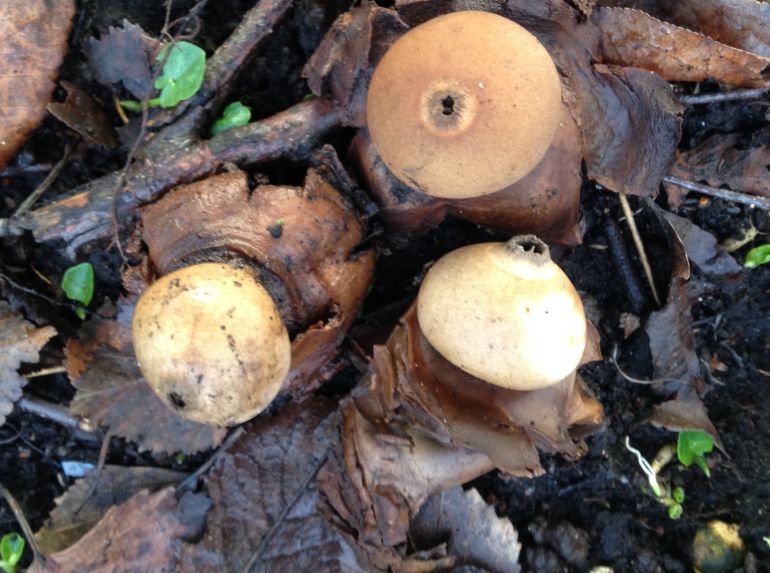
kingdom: Fungi
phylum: Basidiomycota
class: Agaricomycetes
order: Geastrales
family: Geastraceae
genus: Geastrum
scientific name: Geastrum michelianum
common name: kødet stjernebold
